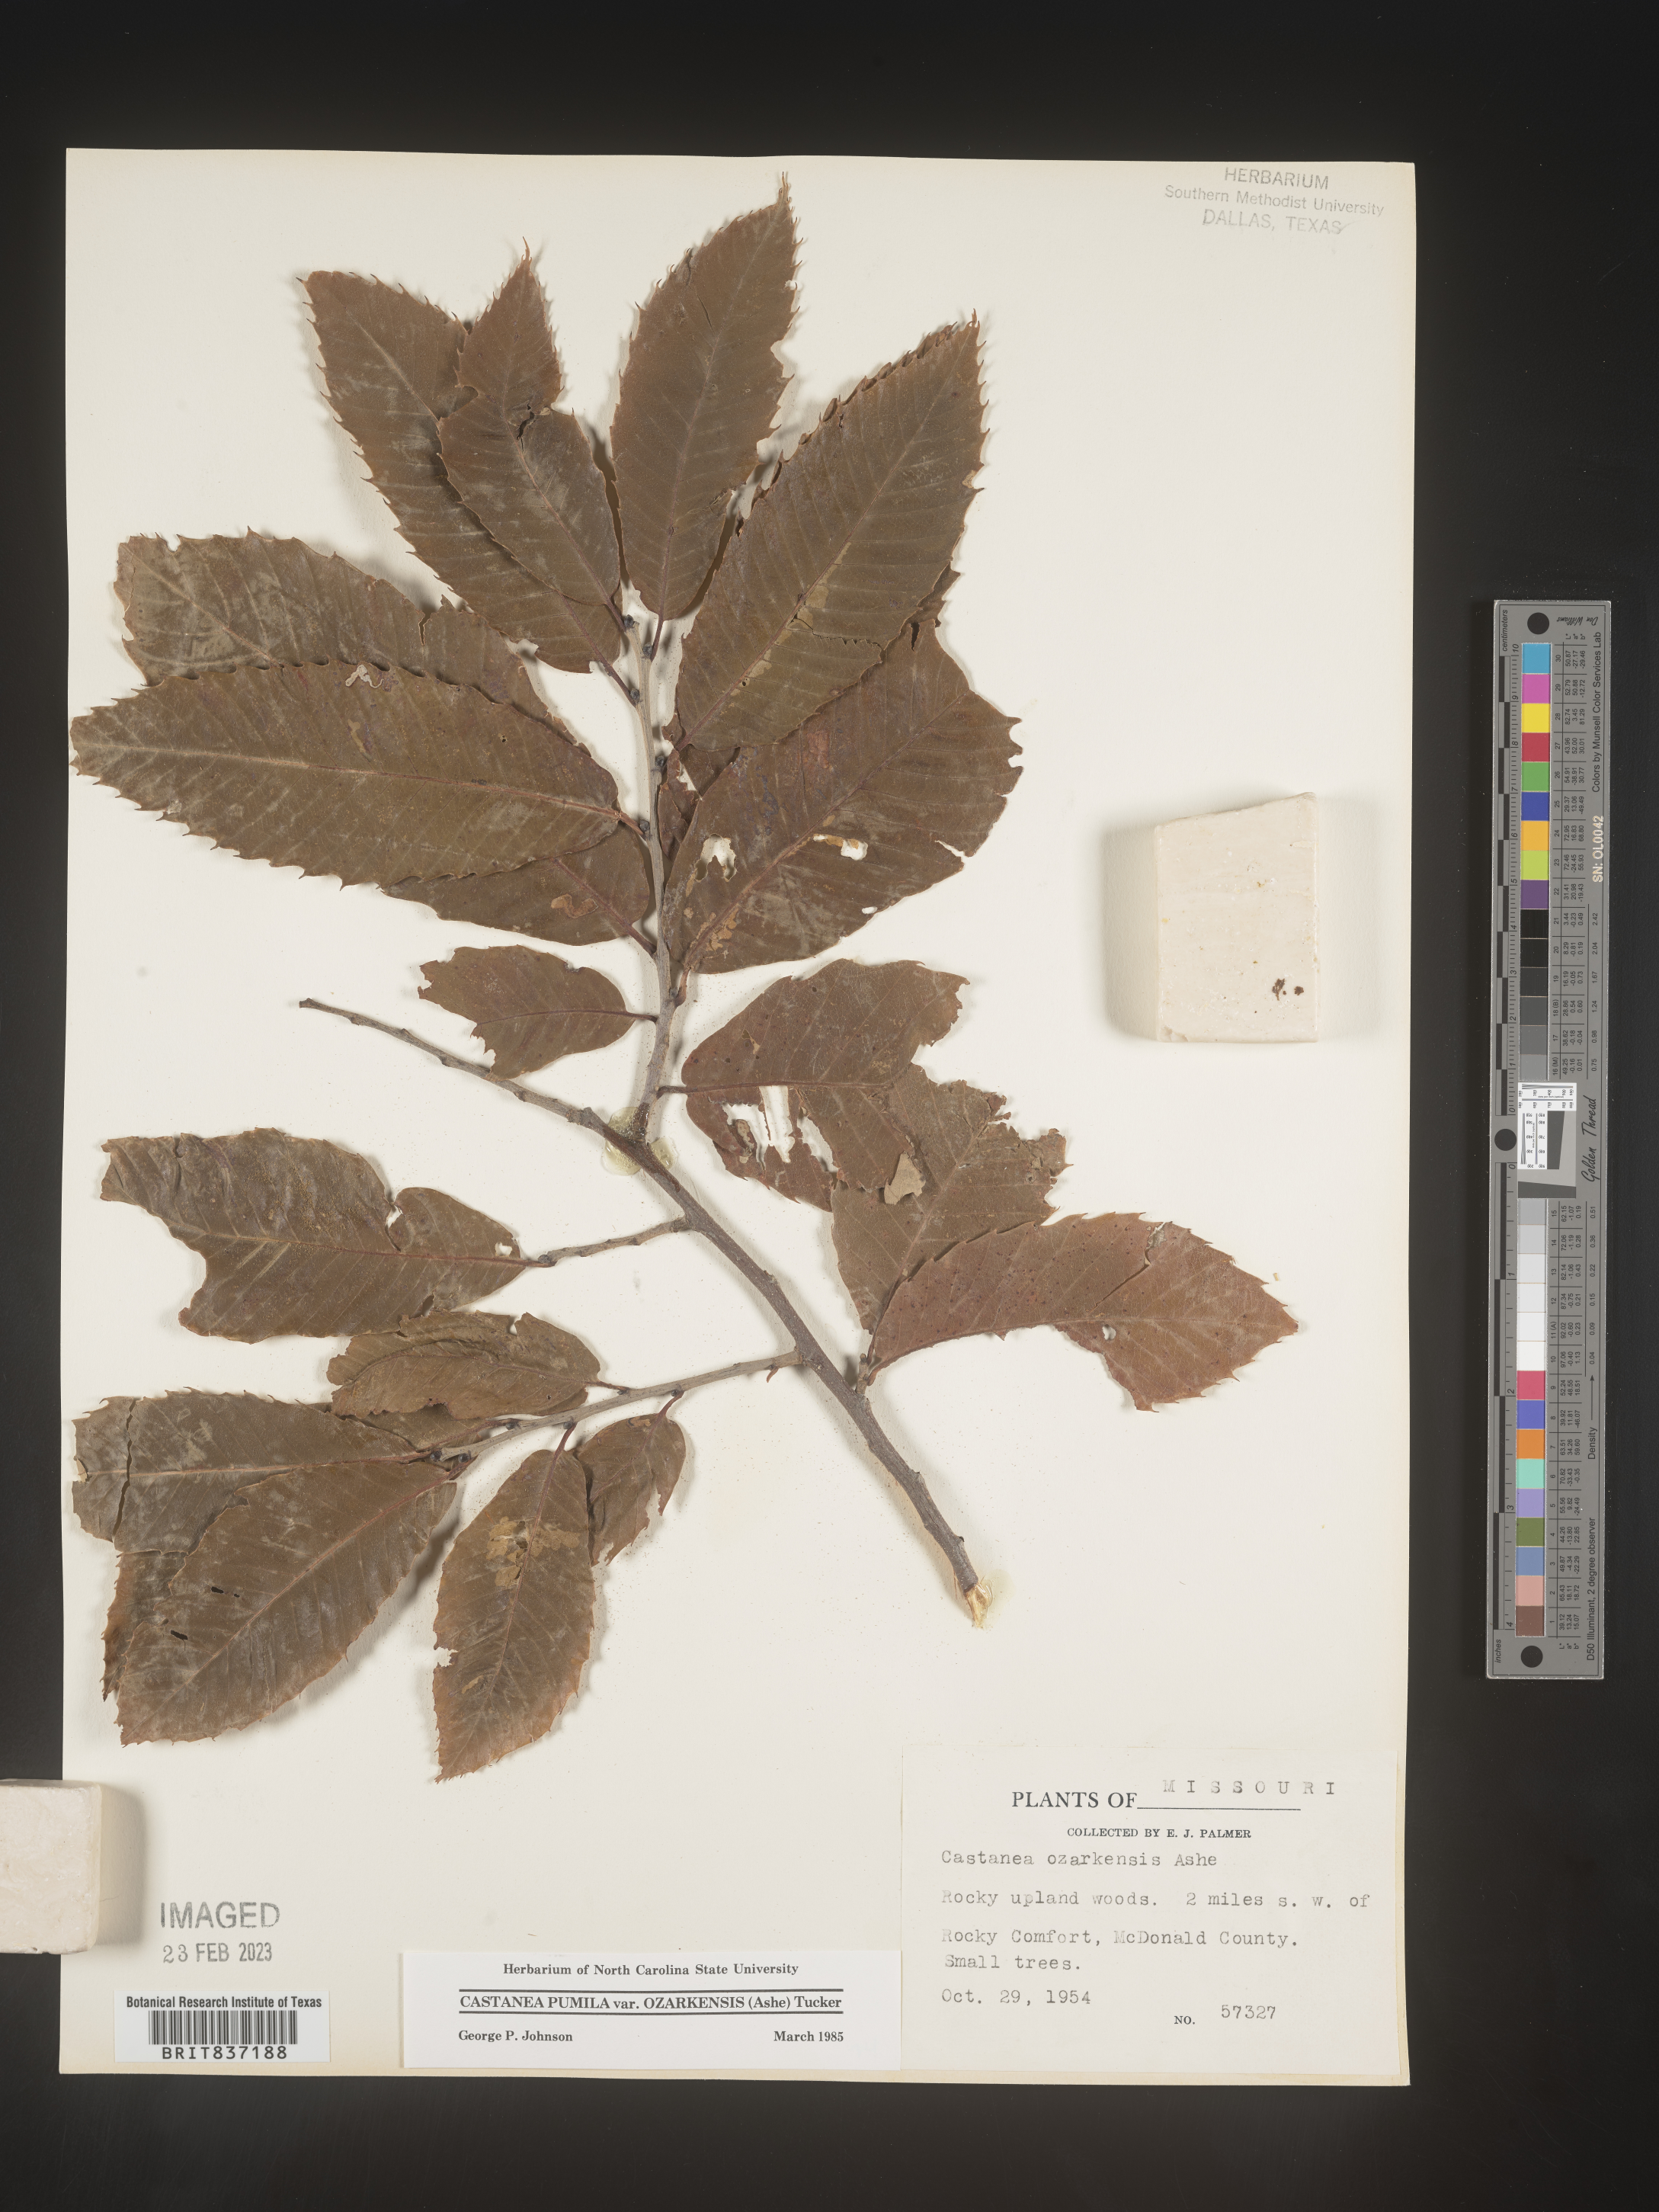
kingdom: Plantae
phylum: Tracheophyta
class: Magnoliopsida
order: Fagales
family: Fagaceae
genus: Castanea
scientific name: Castanea ozarkensis
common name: Ozark chinkapin
